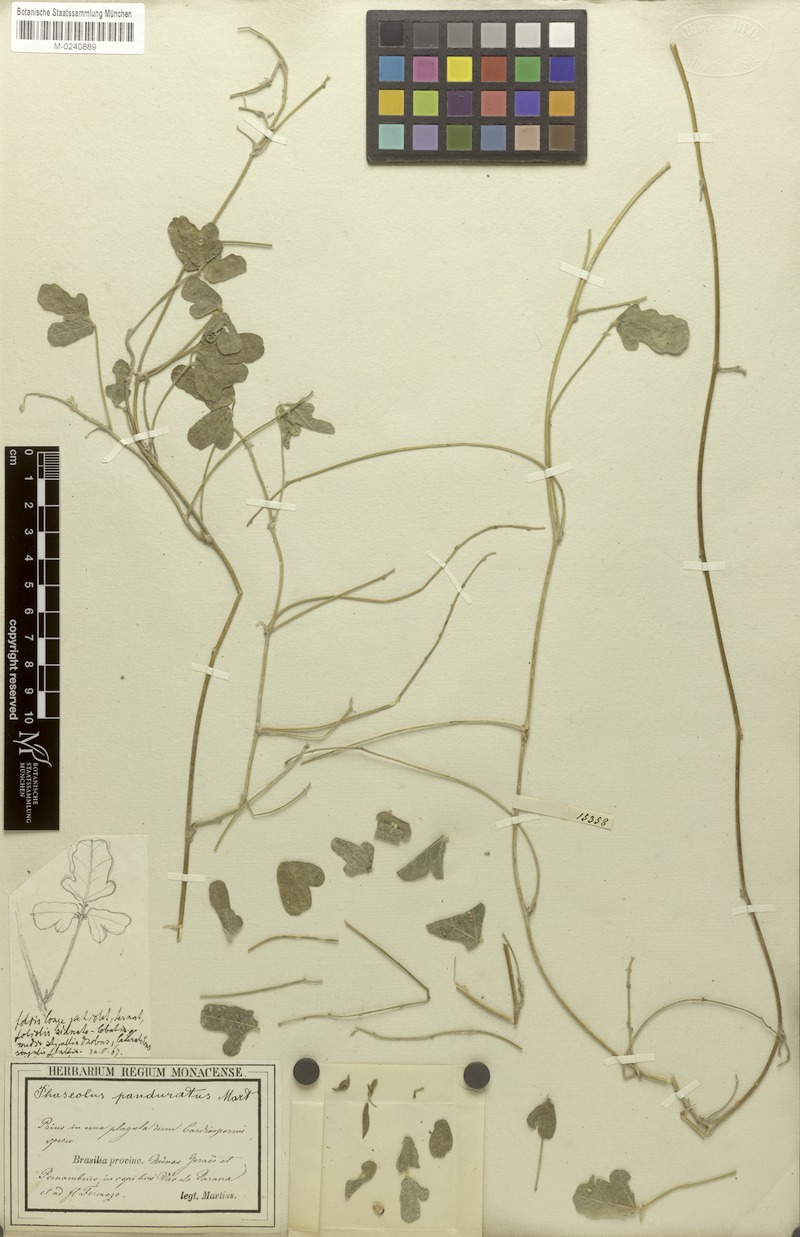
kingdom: Plantae
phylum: Tracheophyta
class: Magnoliopsida
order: Fabales
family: Fabaceae
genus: Macroptilium
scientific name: Macroptilium panduratum
